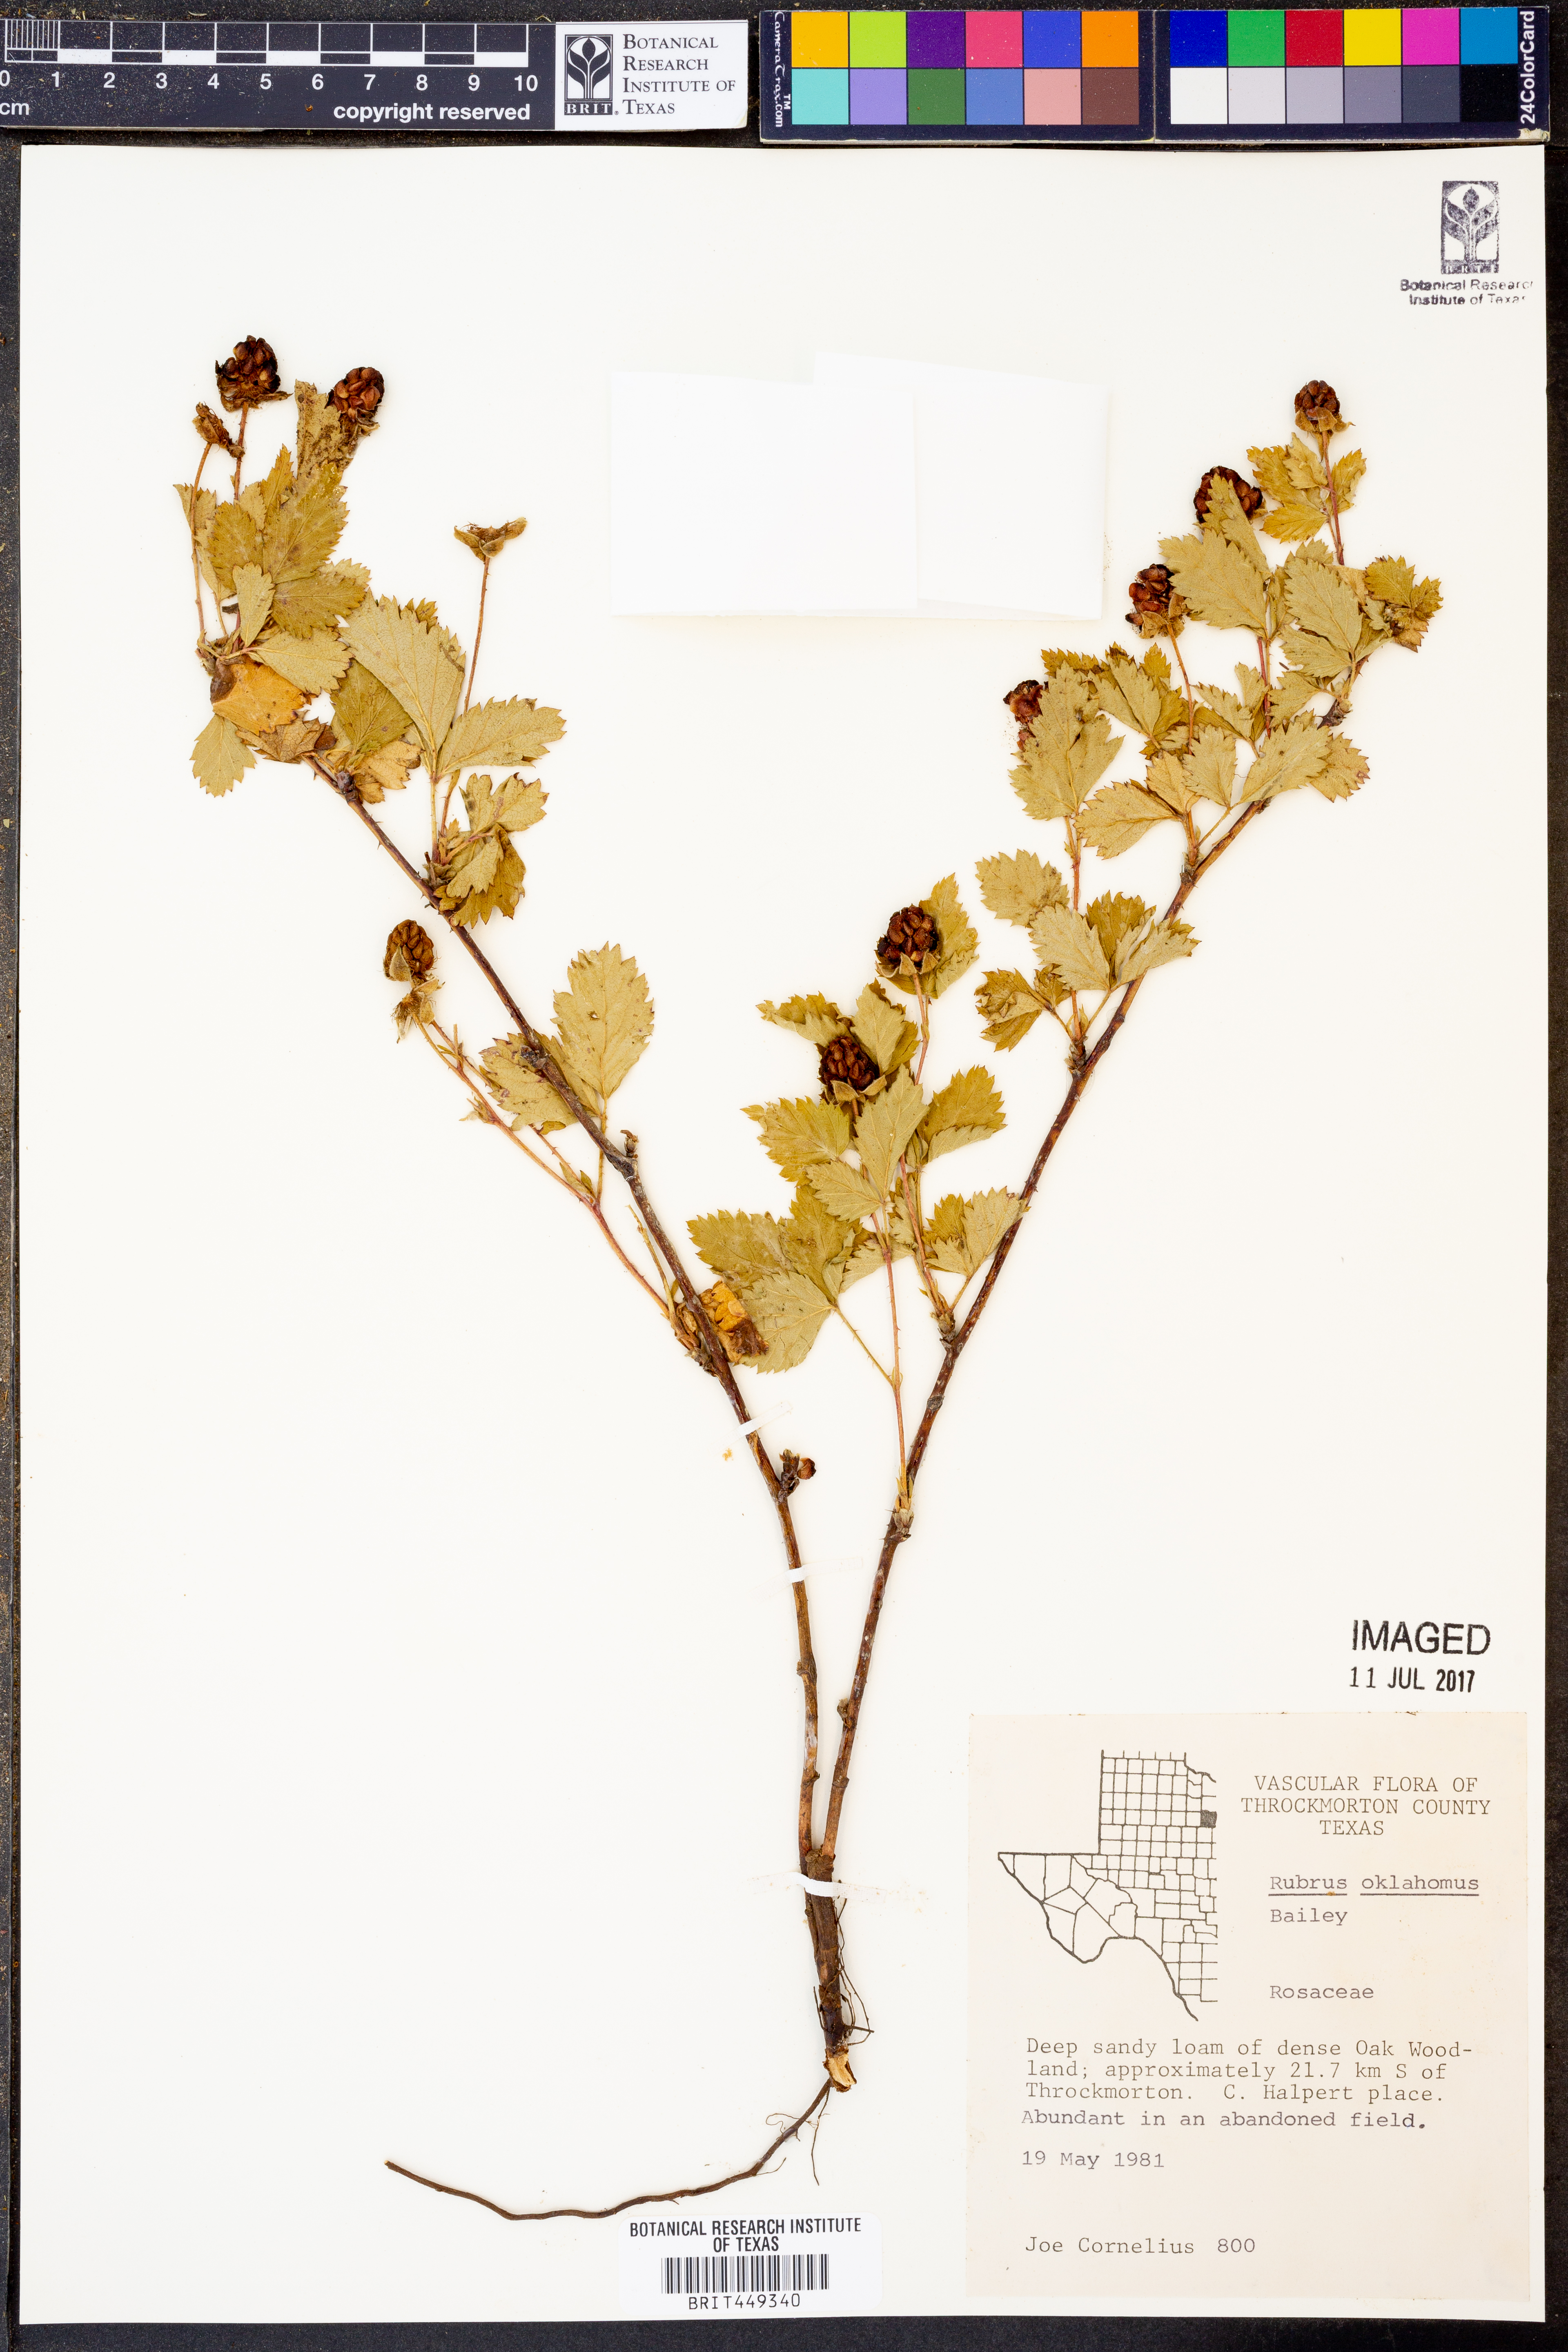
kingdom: Plantae
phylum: Tracheophyta
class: Magnoliopsida
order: Rosales
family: Rosaceae
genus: Rubus
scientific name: Rubus oklahomus
